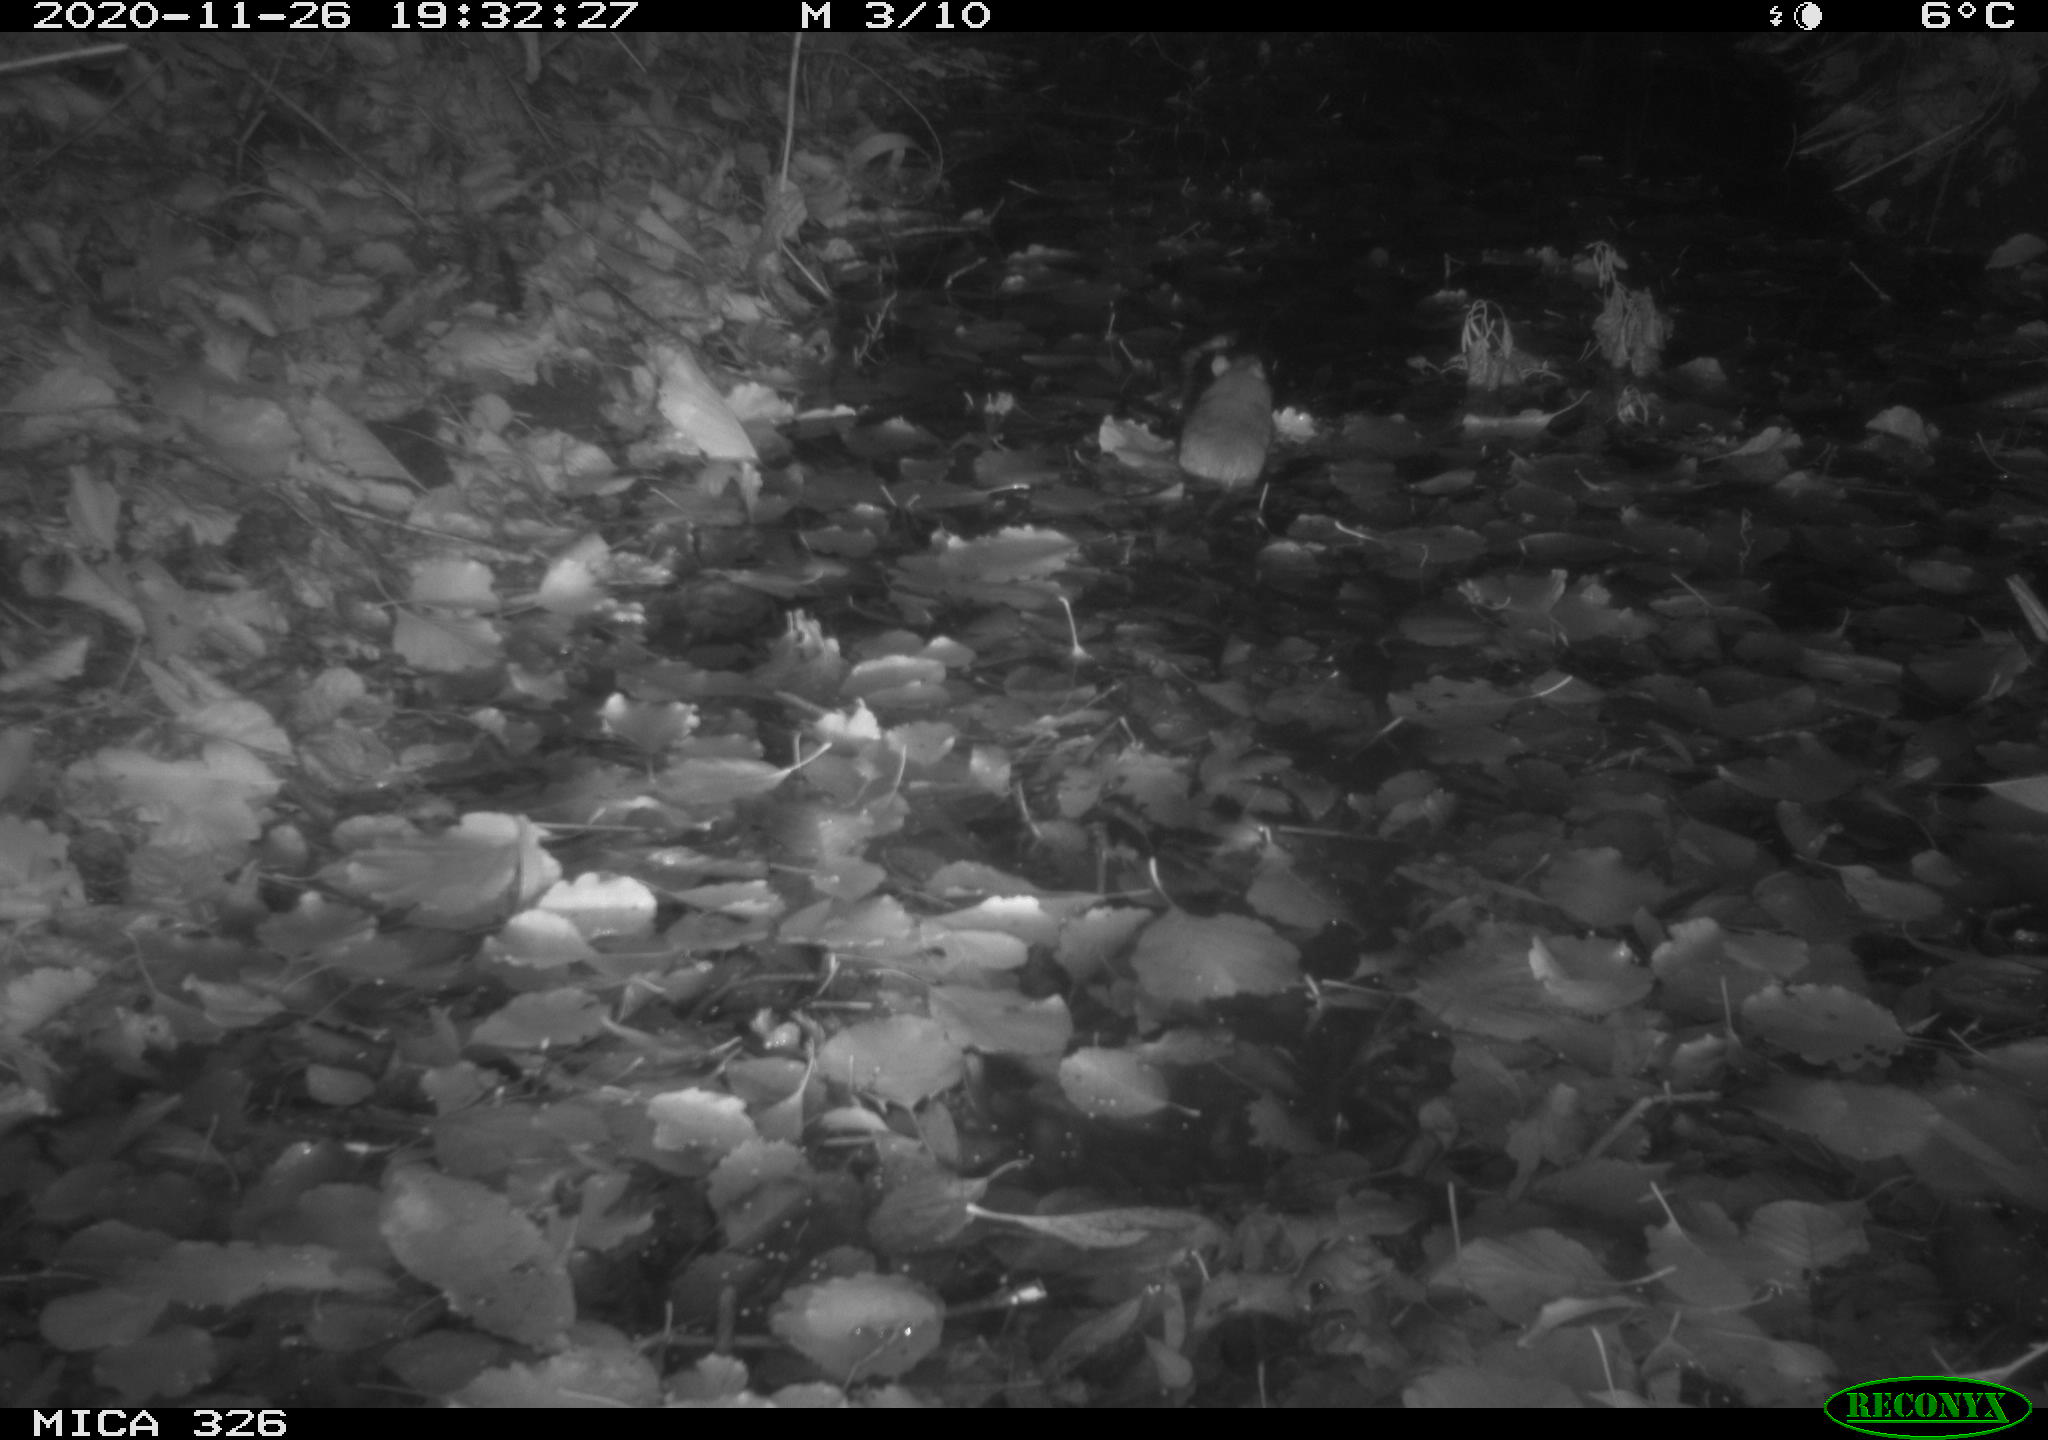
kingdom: Animalia
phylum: Chordata
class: Mammalia
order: Rodentia
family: Muridae
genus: Rattus
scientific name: Rattus norvegicus
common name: Brown rat
